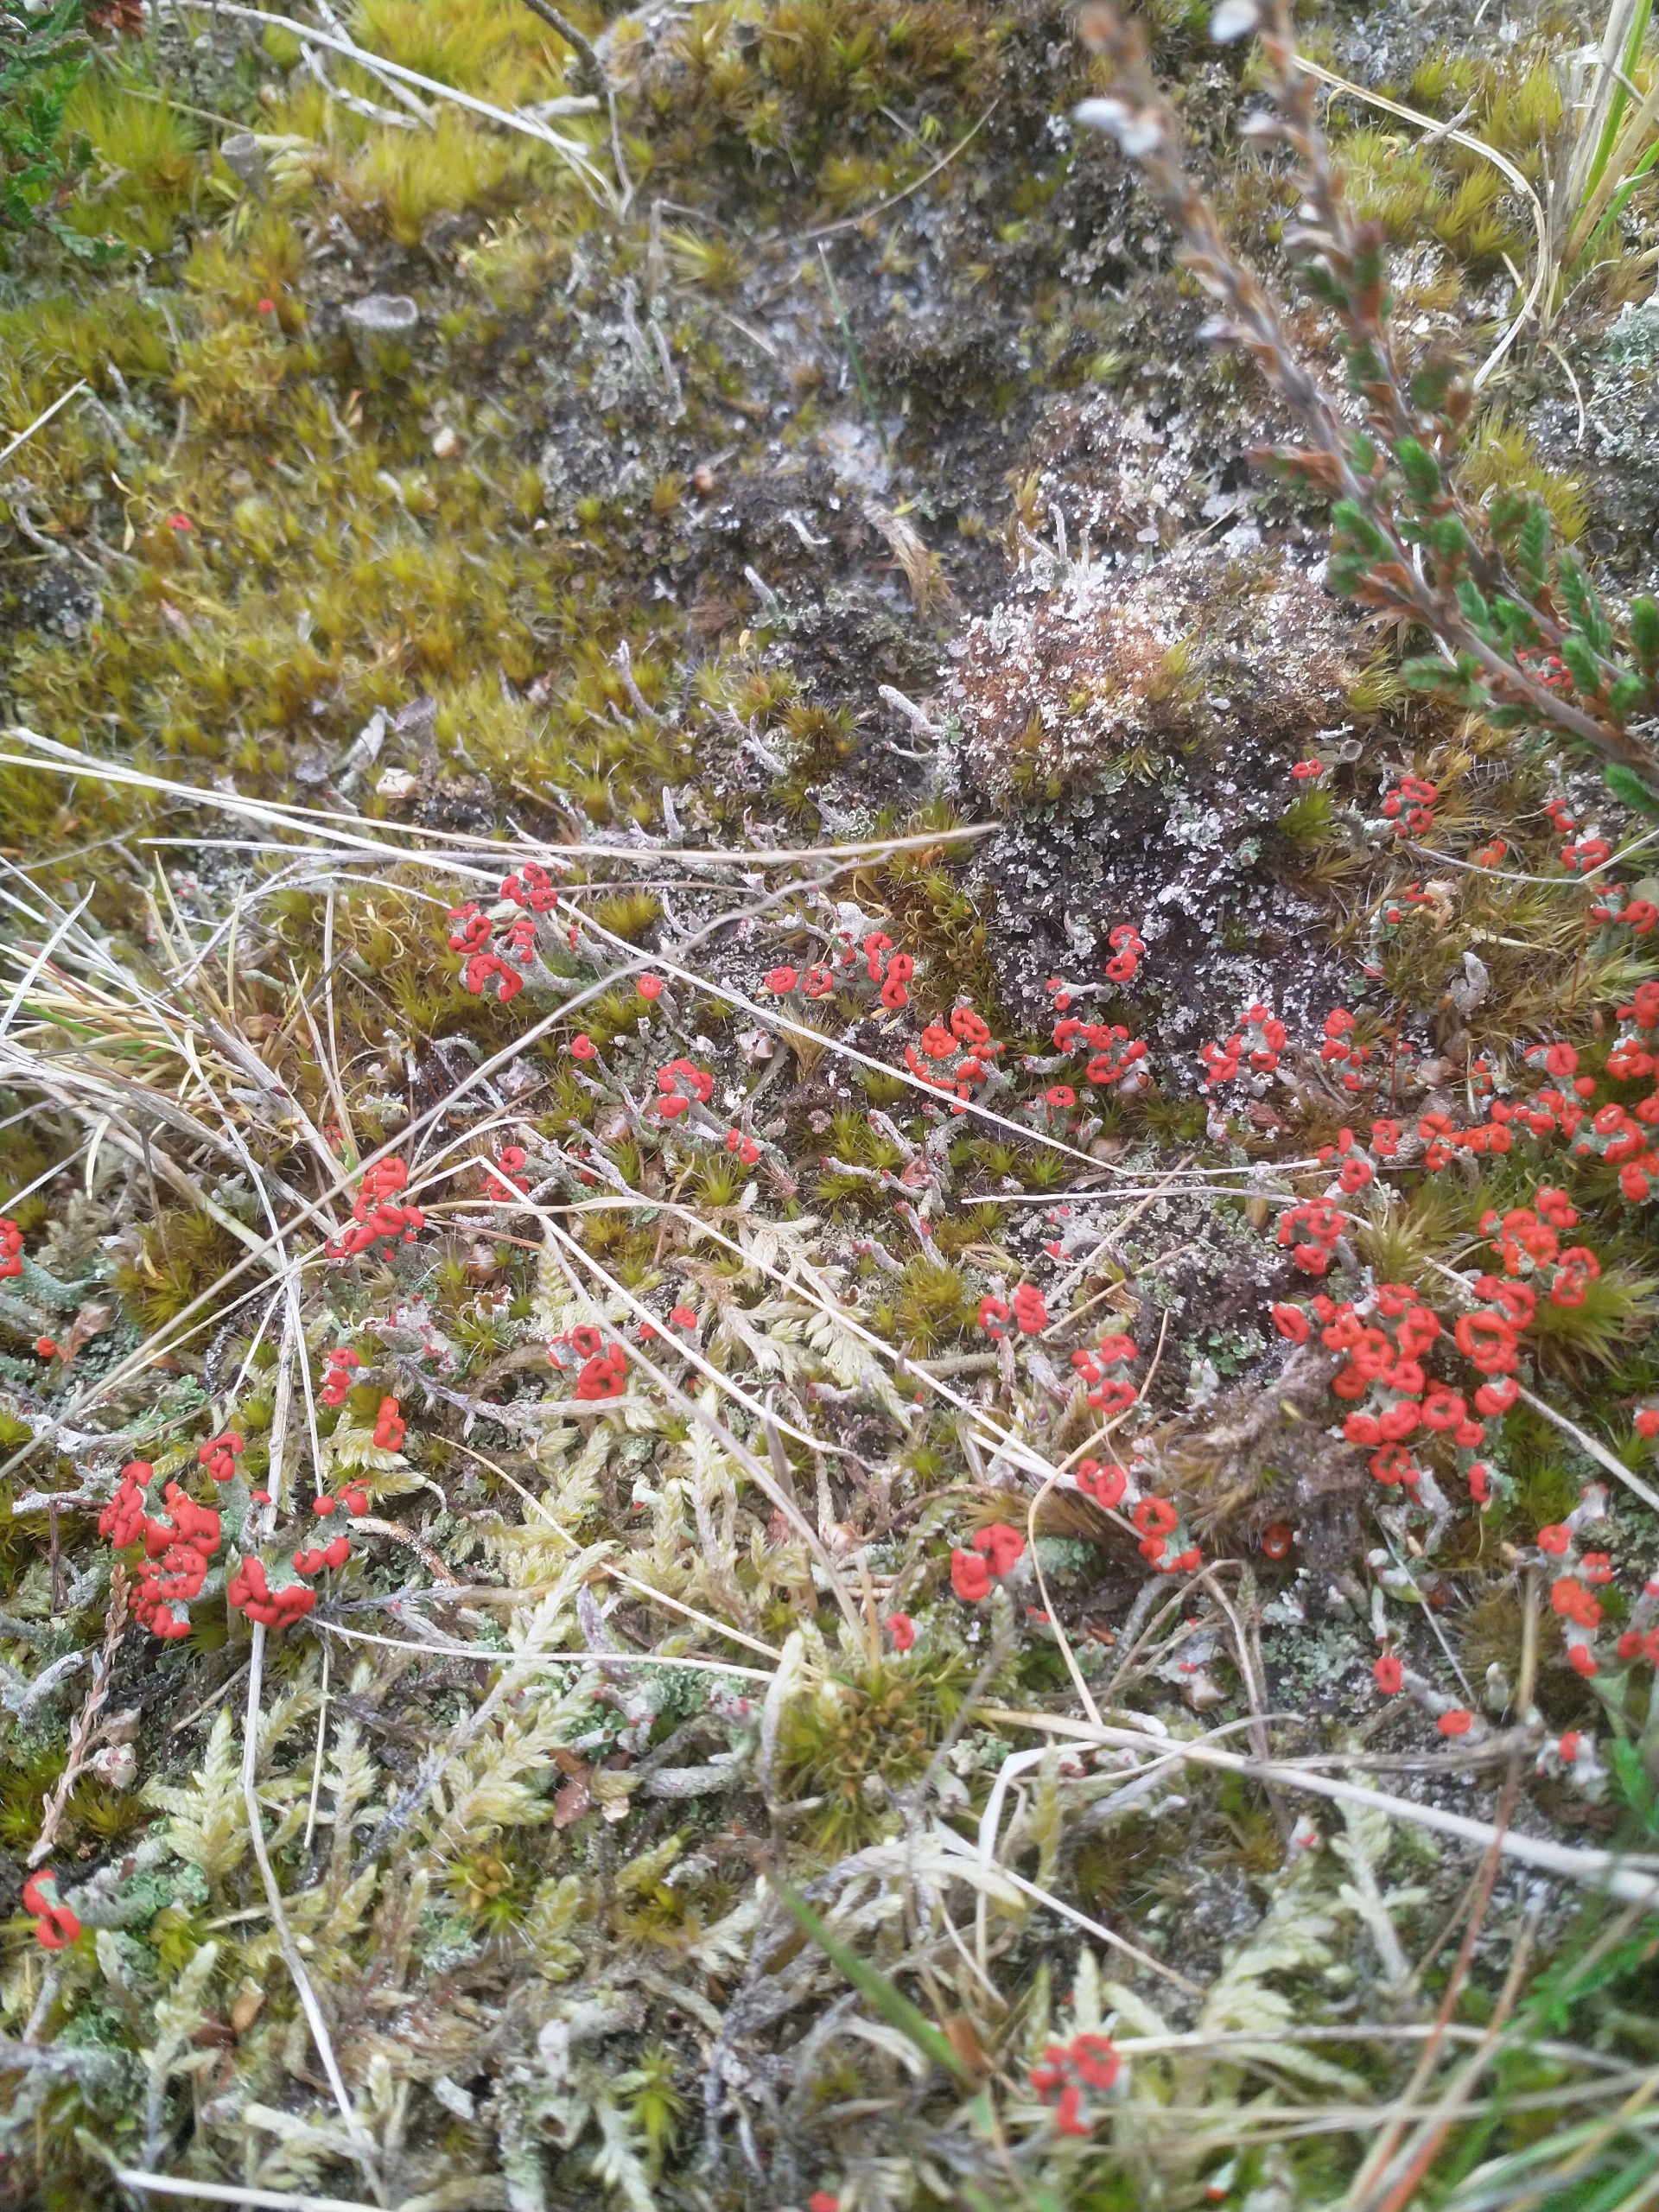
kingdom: Fungi
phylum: Ascomycota
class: Lecanoromycetes
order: Lecanorales
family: Cladoniaceae
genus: Cladonia
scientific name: Cladonia floerkeana
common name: Lakrød bægerlav
